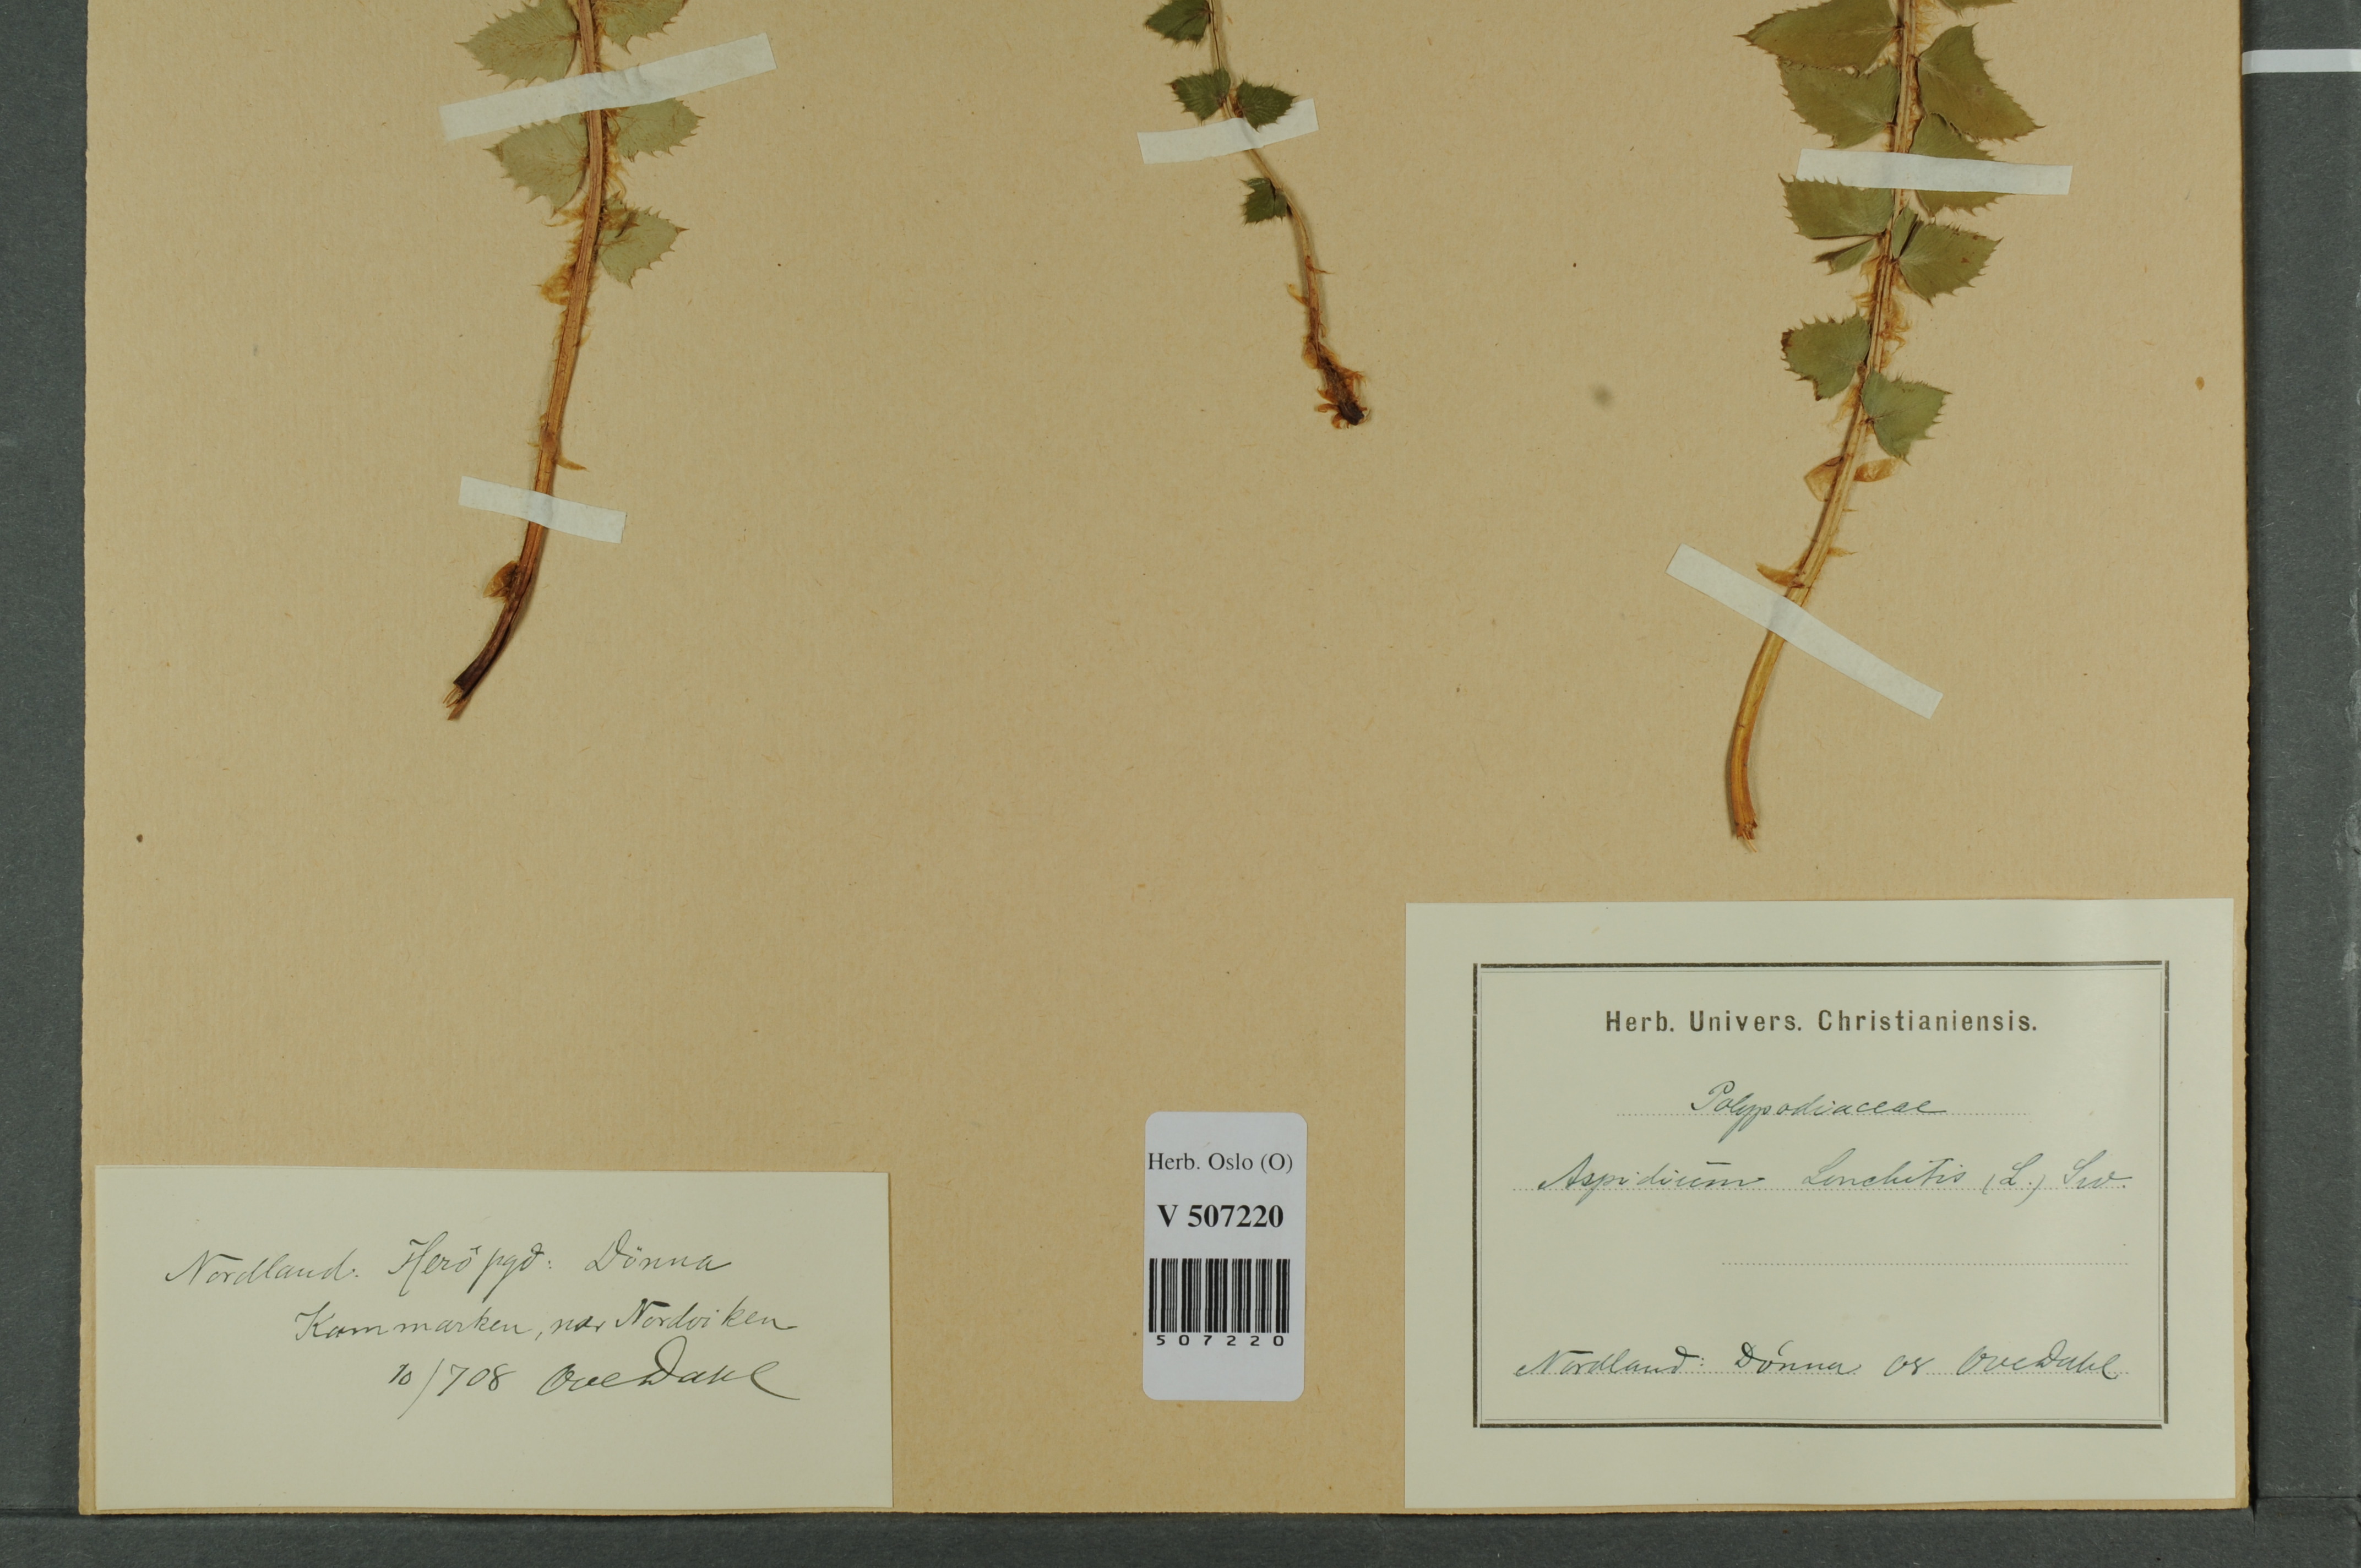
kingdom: Plantae
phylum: Tracheophyta
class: Polypodiopsida
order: Polypodiales
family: Dryopteridaceae
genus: Polystichum
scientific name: Polystichum lonchitis
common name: Holly fern
